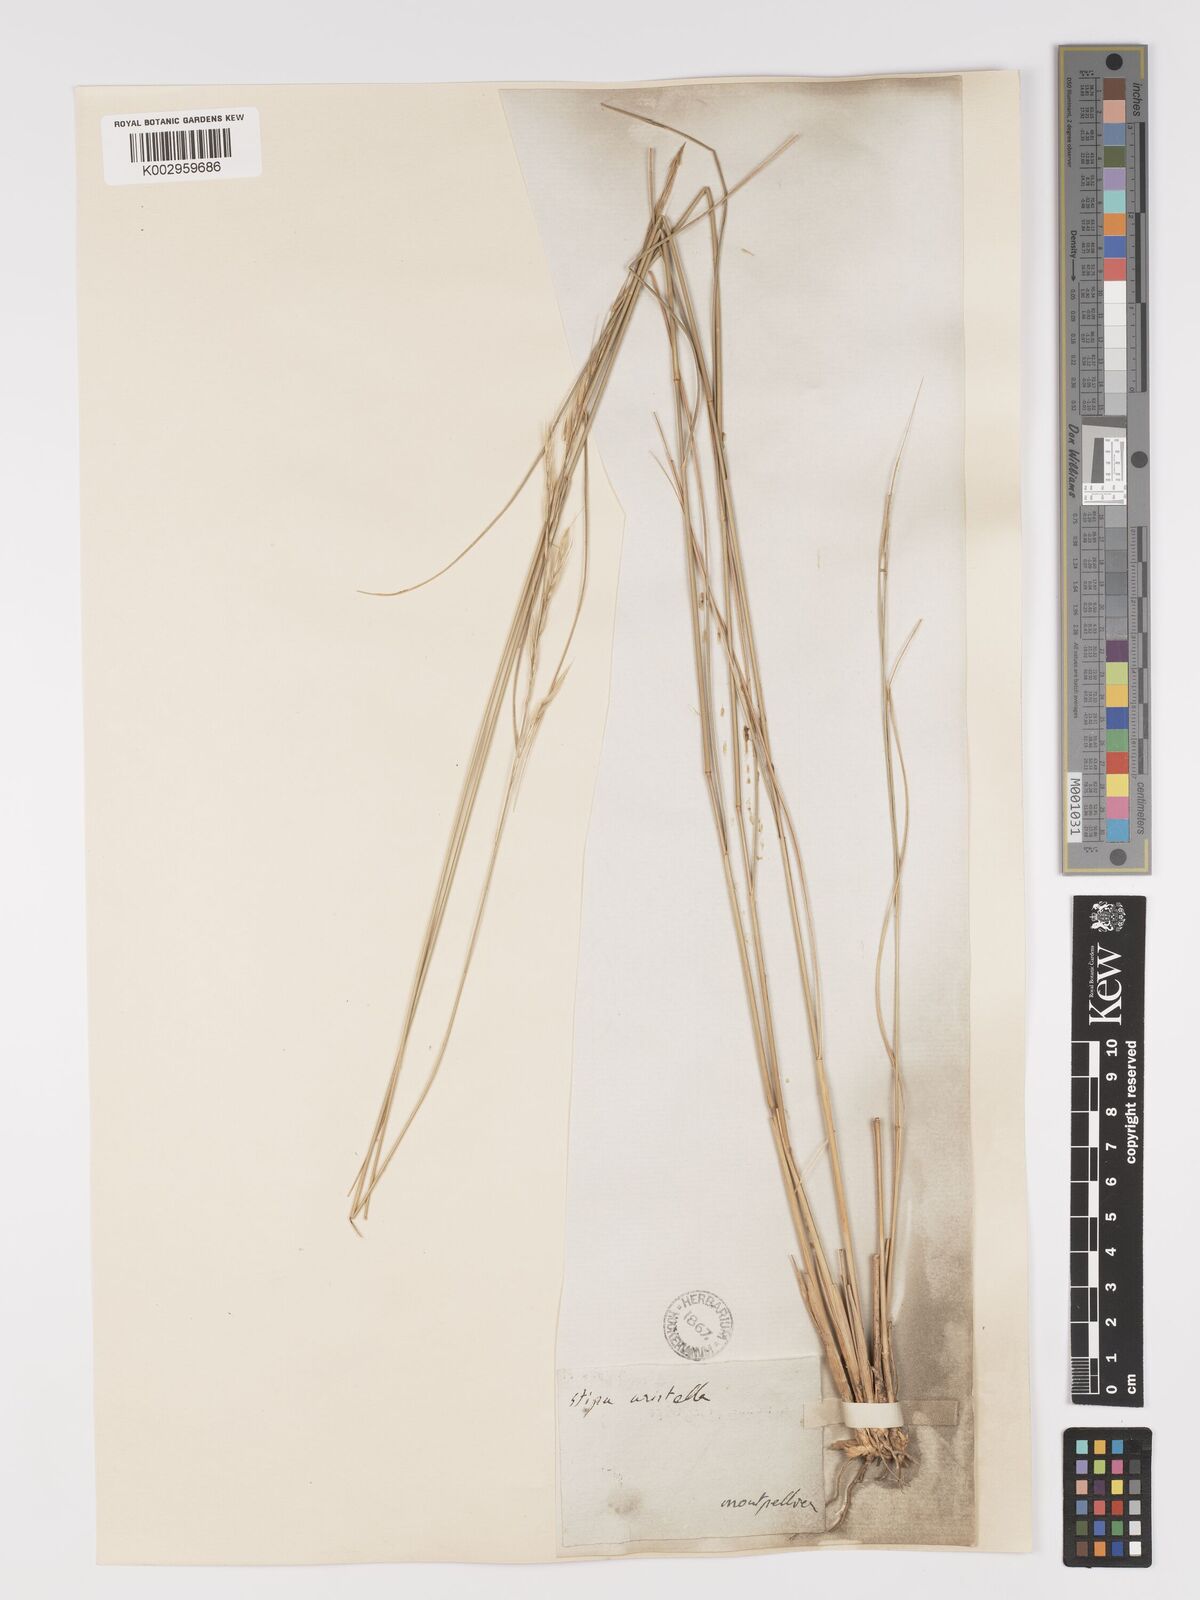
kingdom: Plantae
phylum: Tracheophyta
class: Liliopsida
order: Poales
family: Poaceae
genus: Achnatherum
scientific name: Achnatherum bromoides
